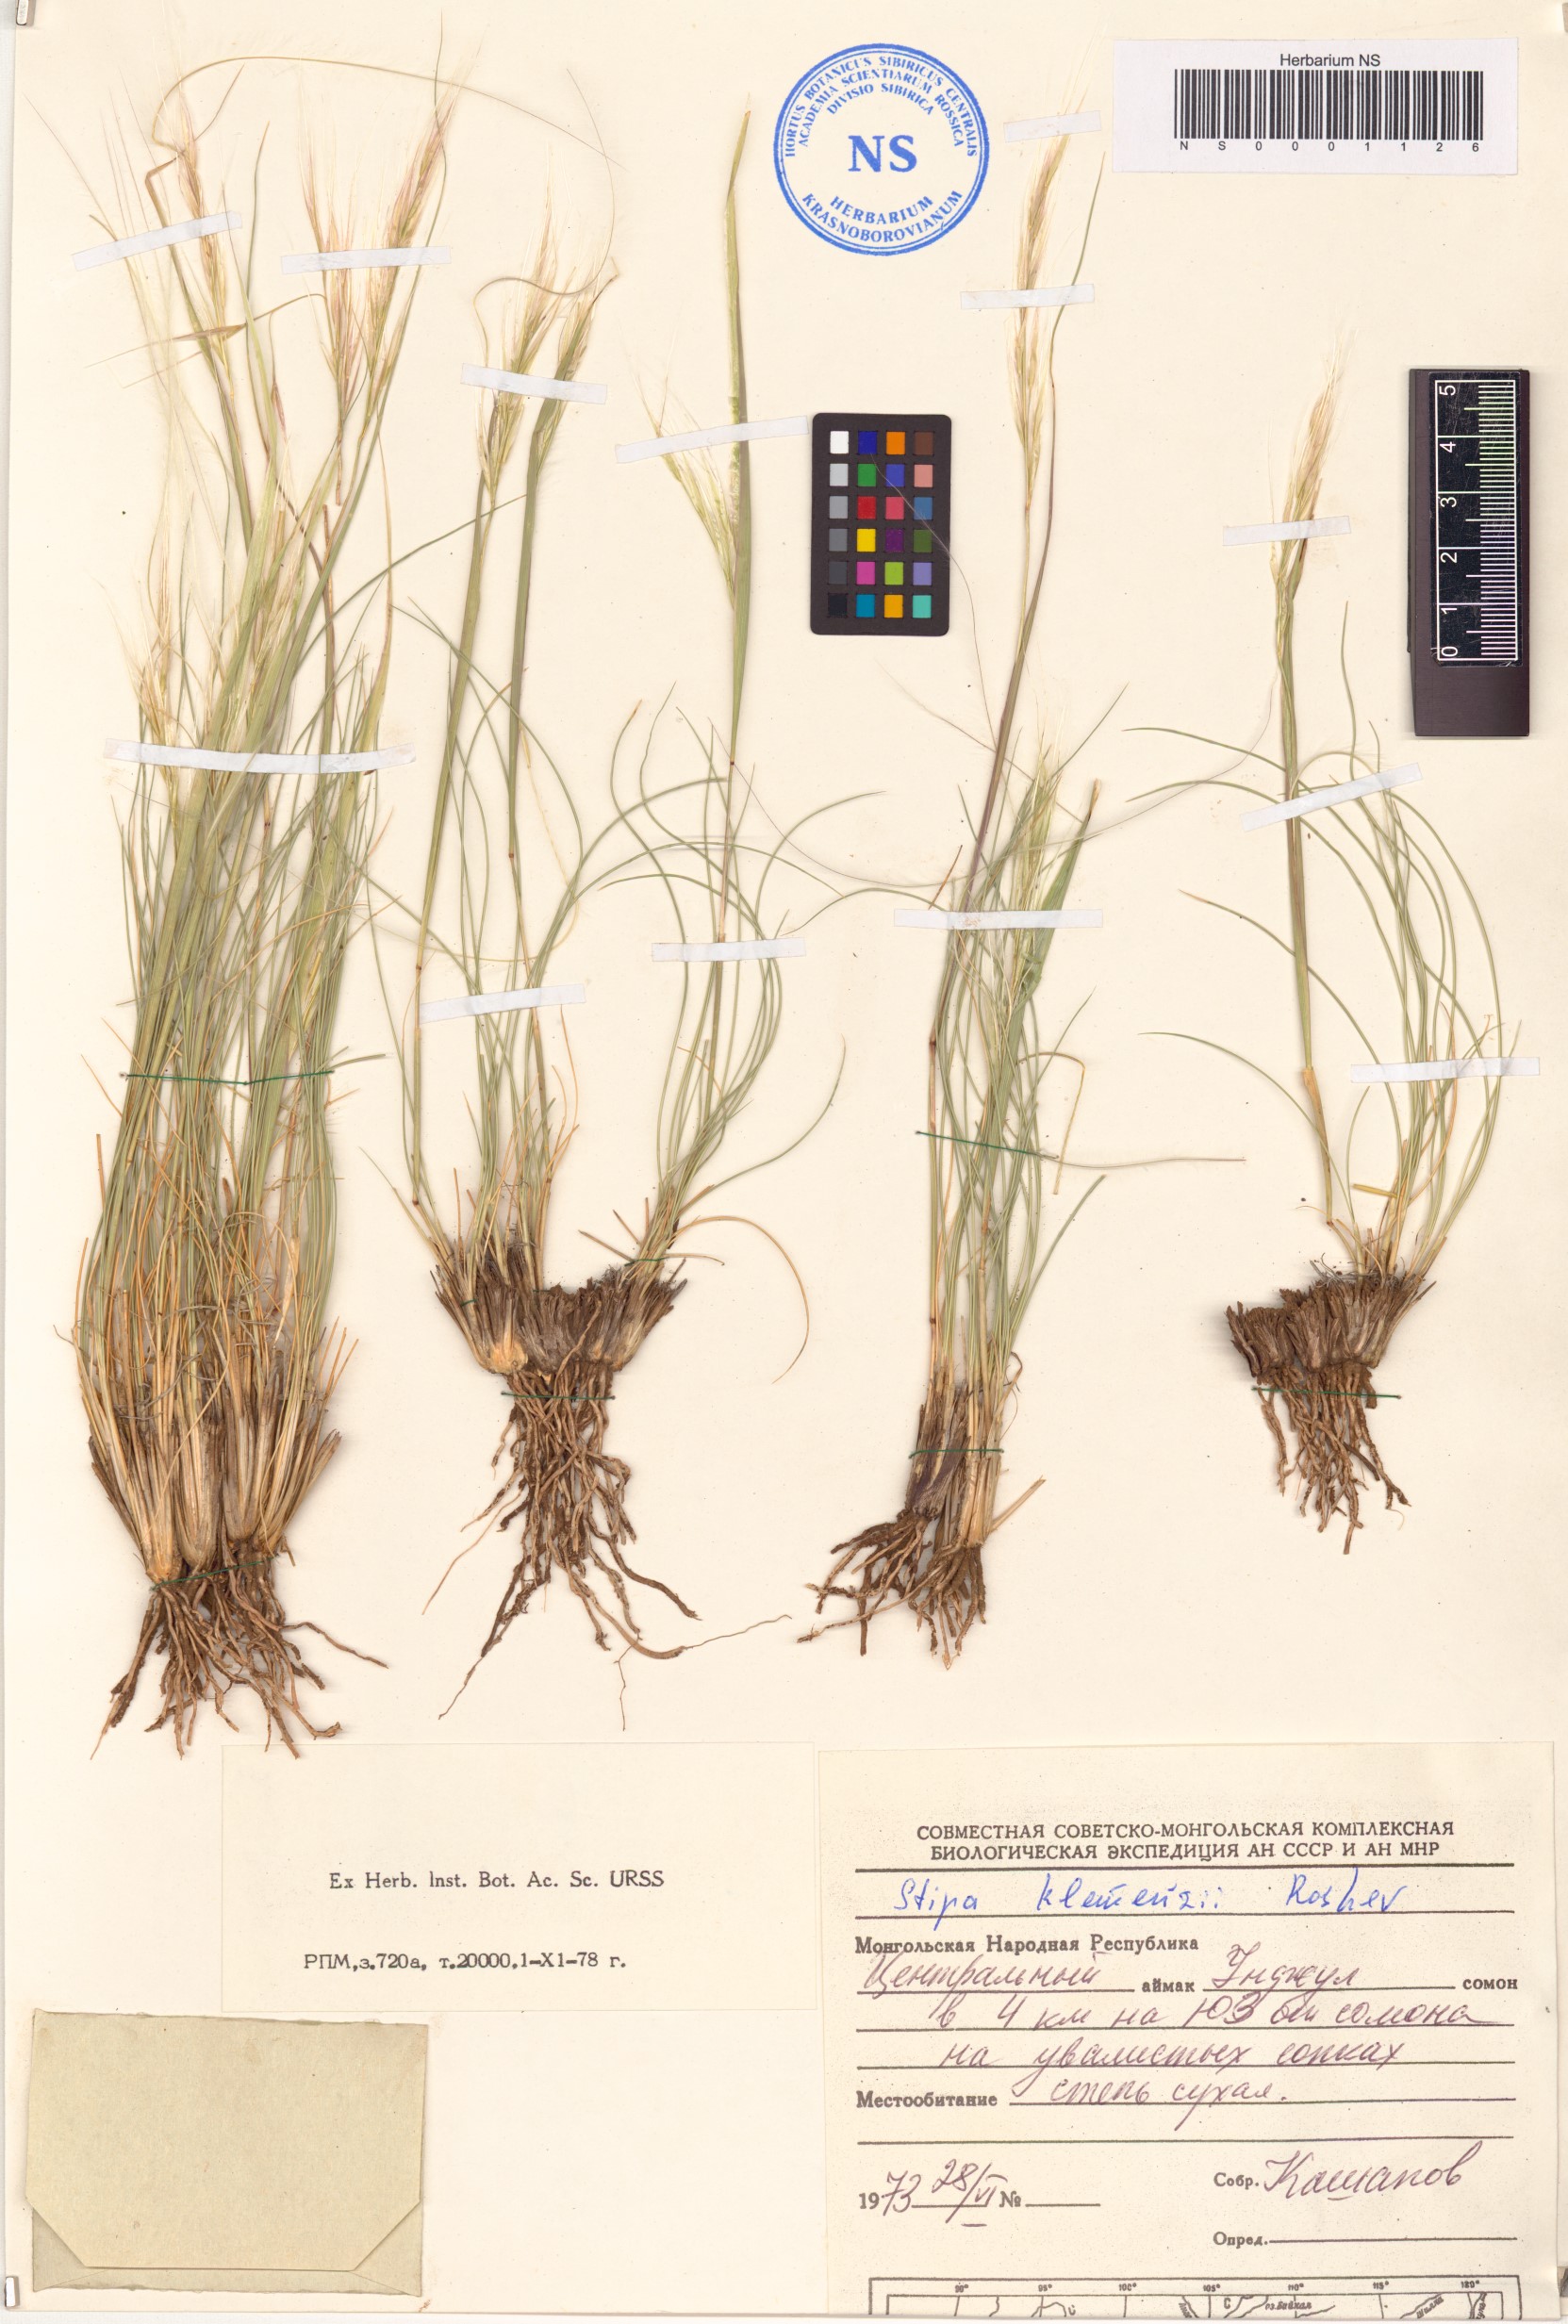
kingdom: Plantae
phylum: Tracheophyta
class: Liliopsida
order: Poales
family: Poaceae
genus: Stipa
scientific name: Stipa tianschanica
